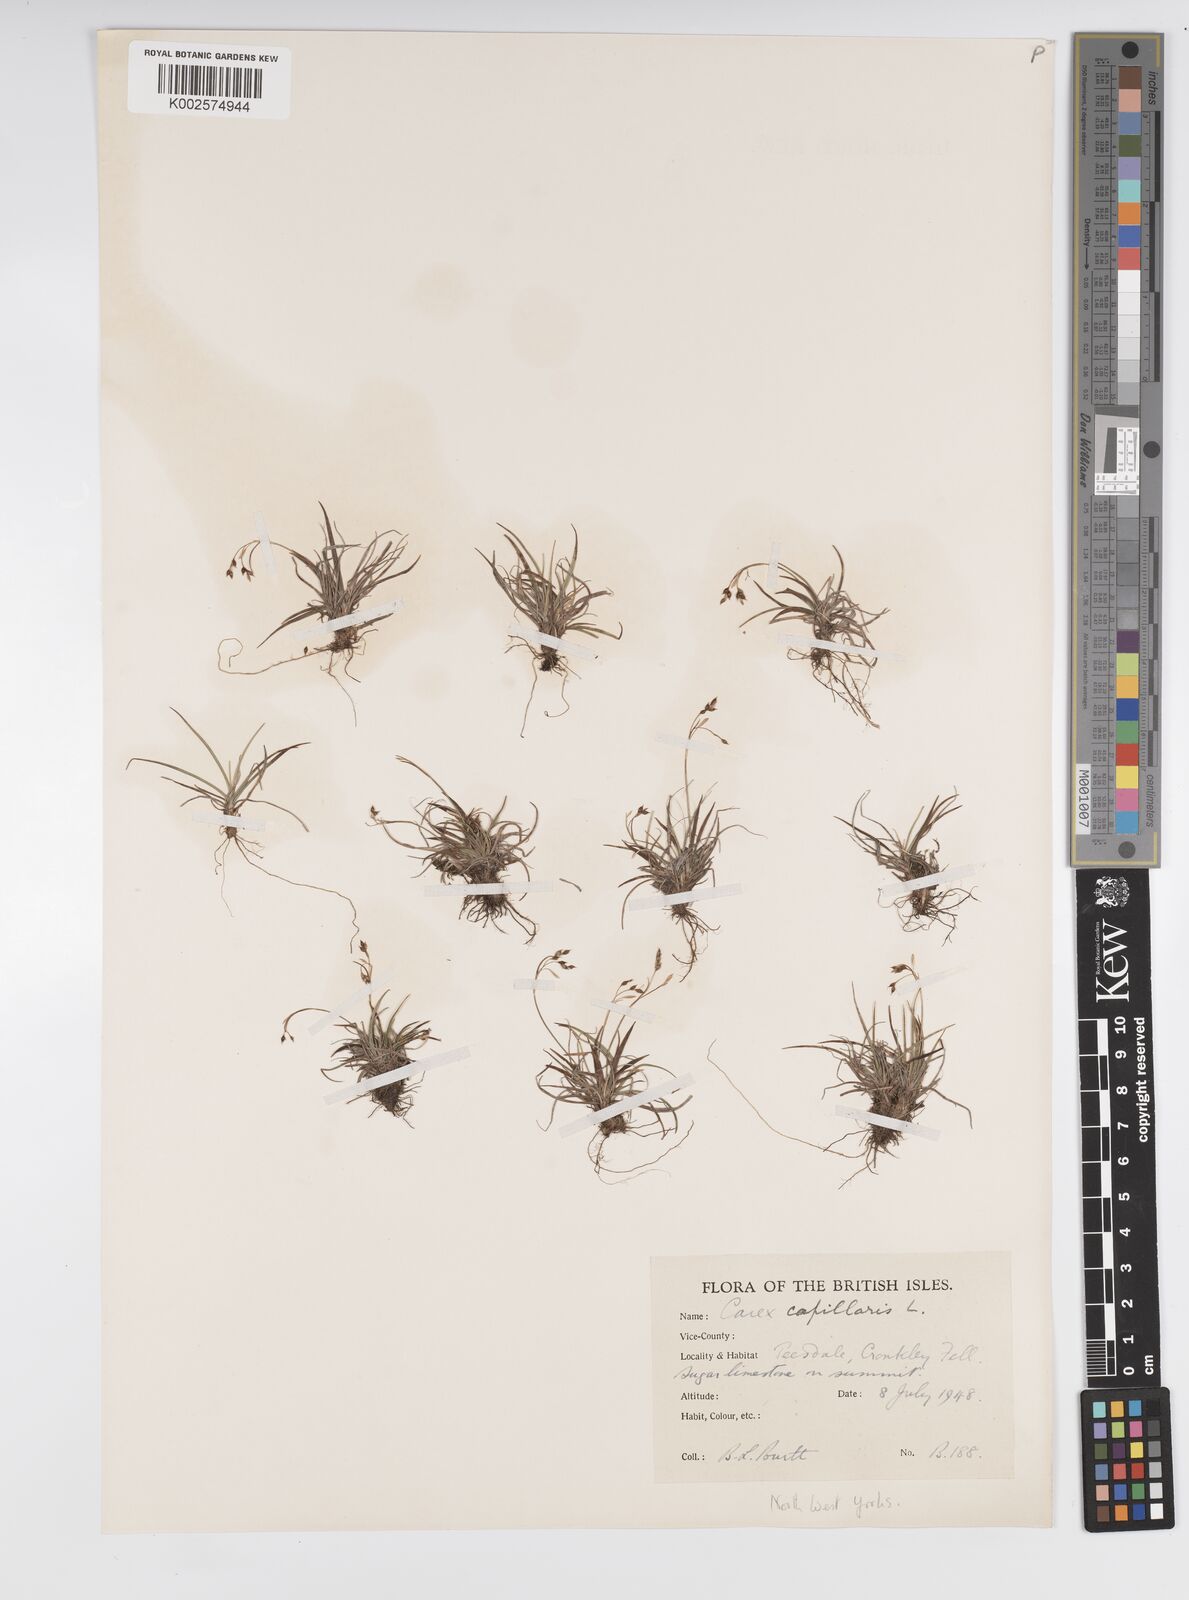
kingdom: Plantae
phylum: Tracheophyta
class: Liliopsida
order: Poales
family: Cyperaceae
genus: Carex
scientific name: Carex capillaris
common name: Hair sedge
